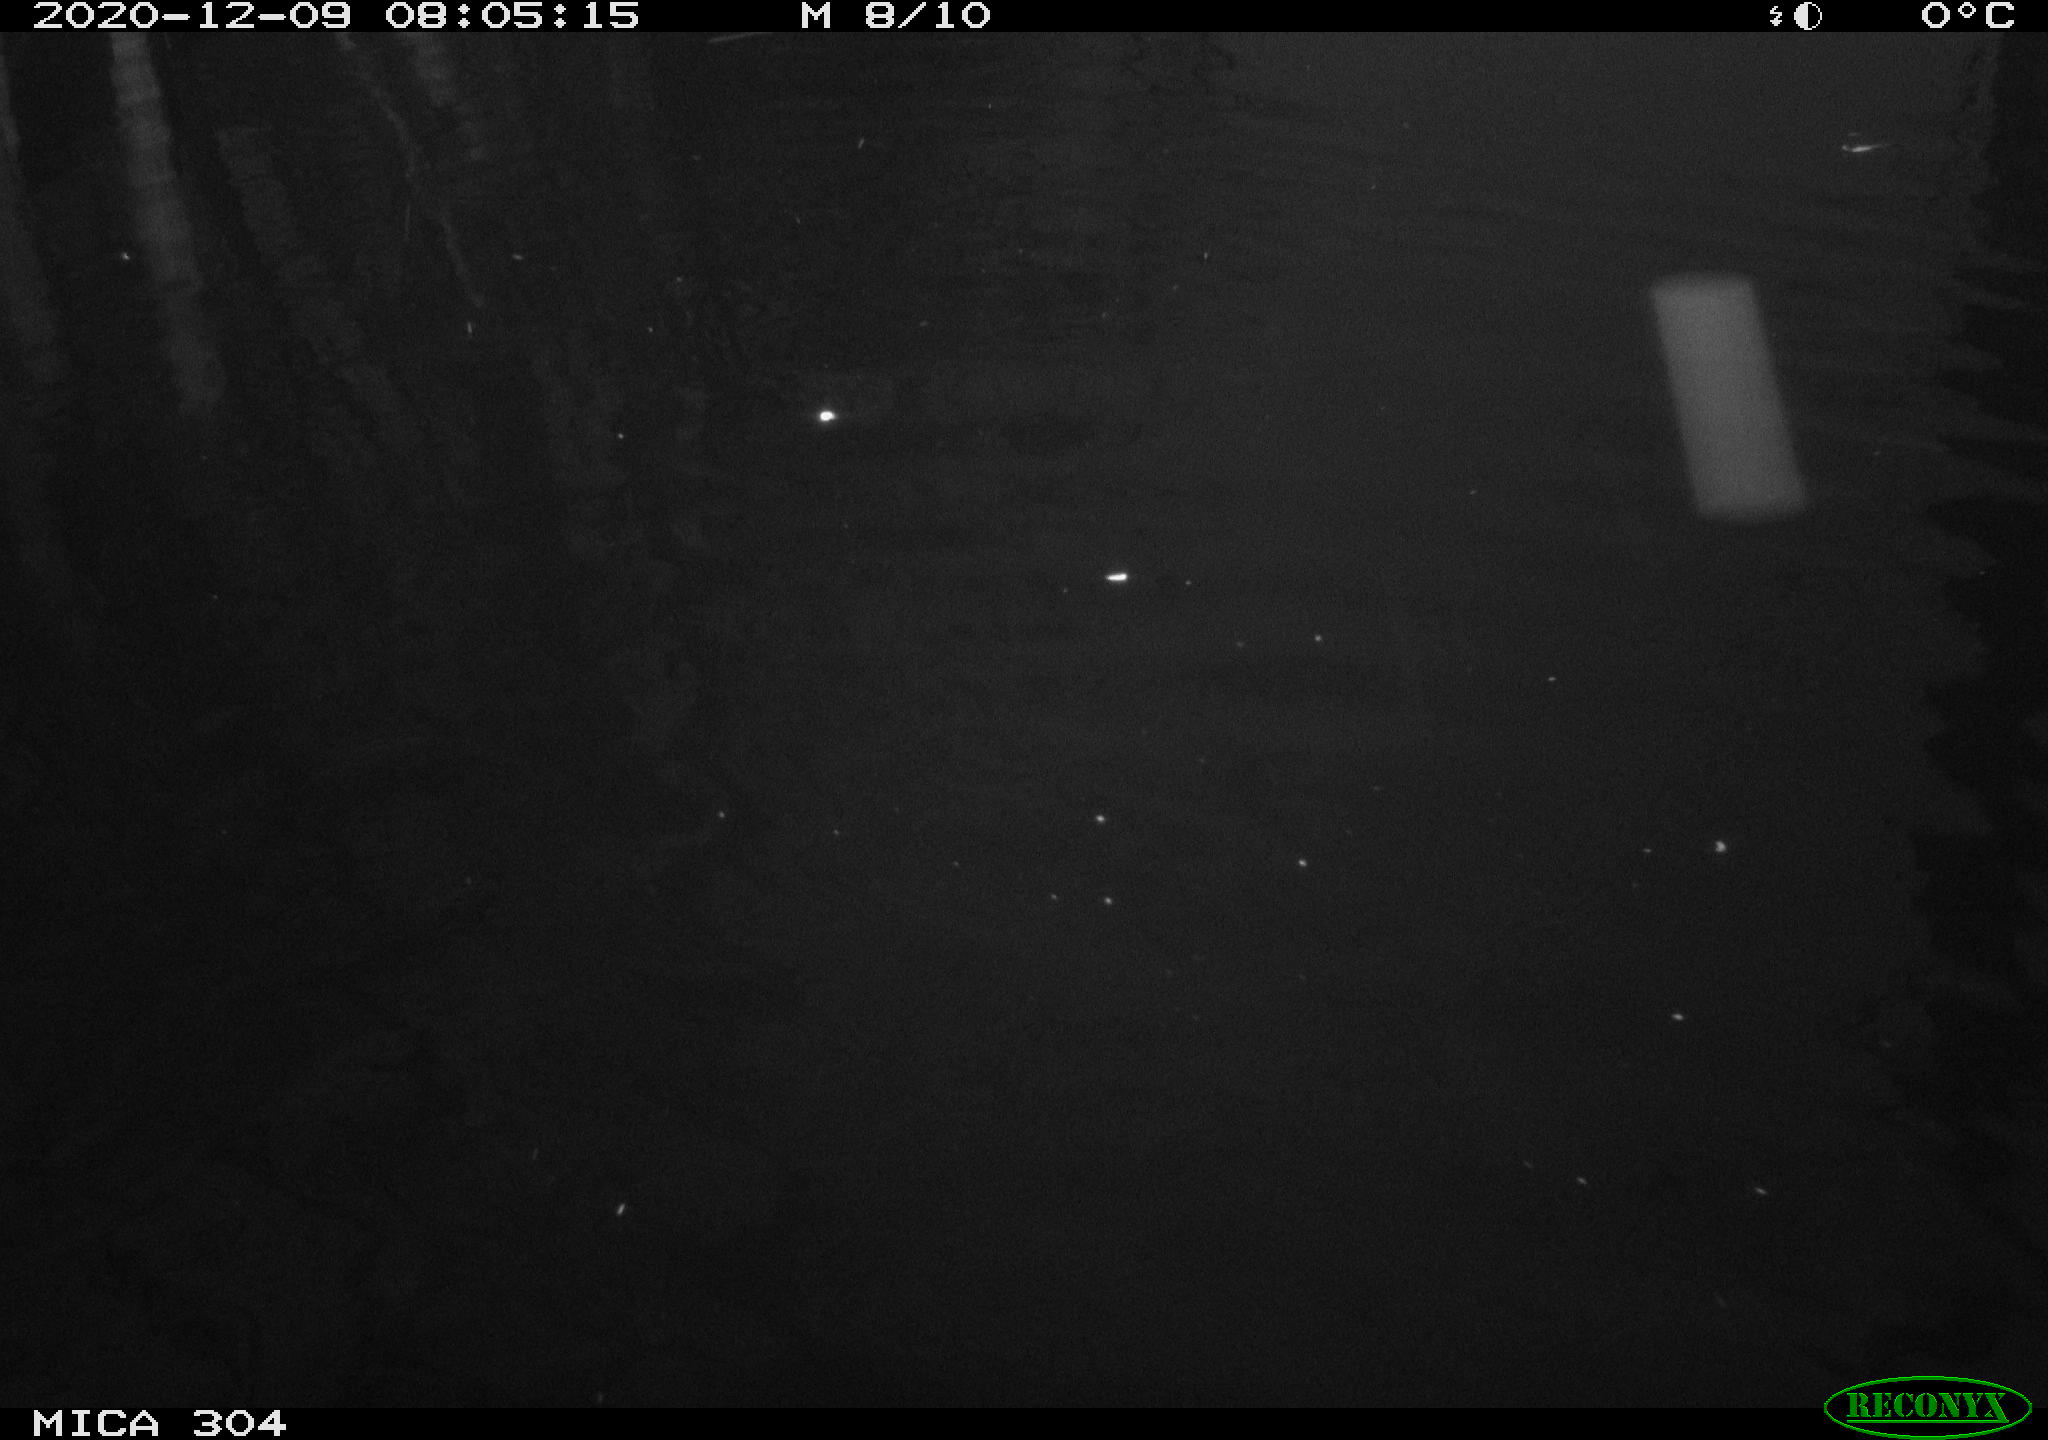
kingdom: Animalia
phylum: Chordata
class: Aves
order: Gruiformes
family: Rallidae
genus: Gallinula
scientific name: Gallinula chloropus
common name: Common moorhen
